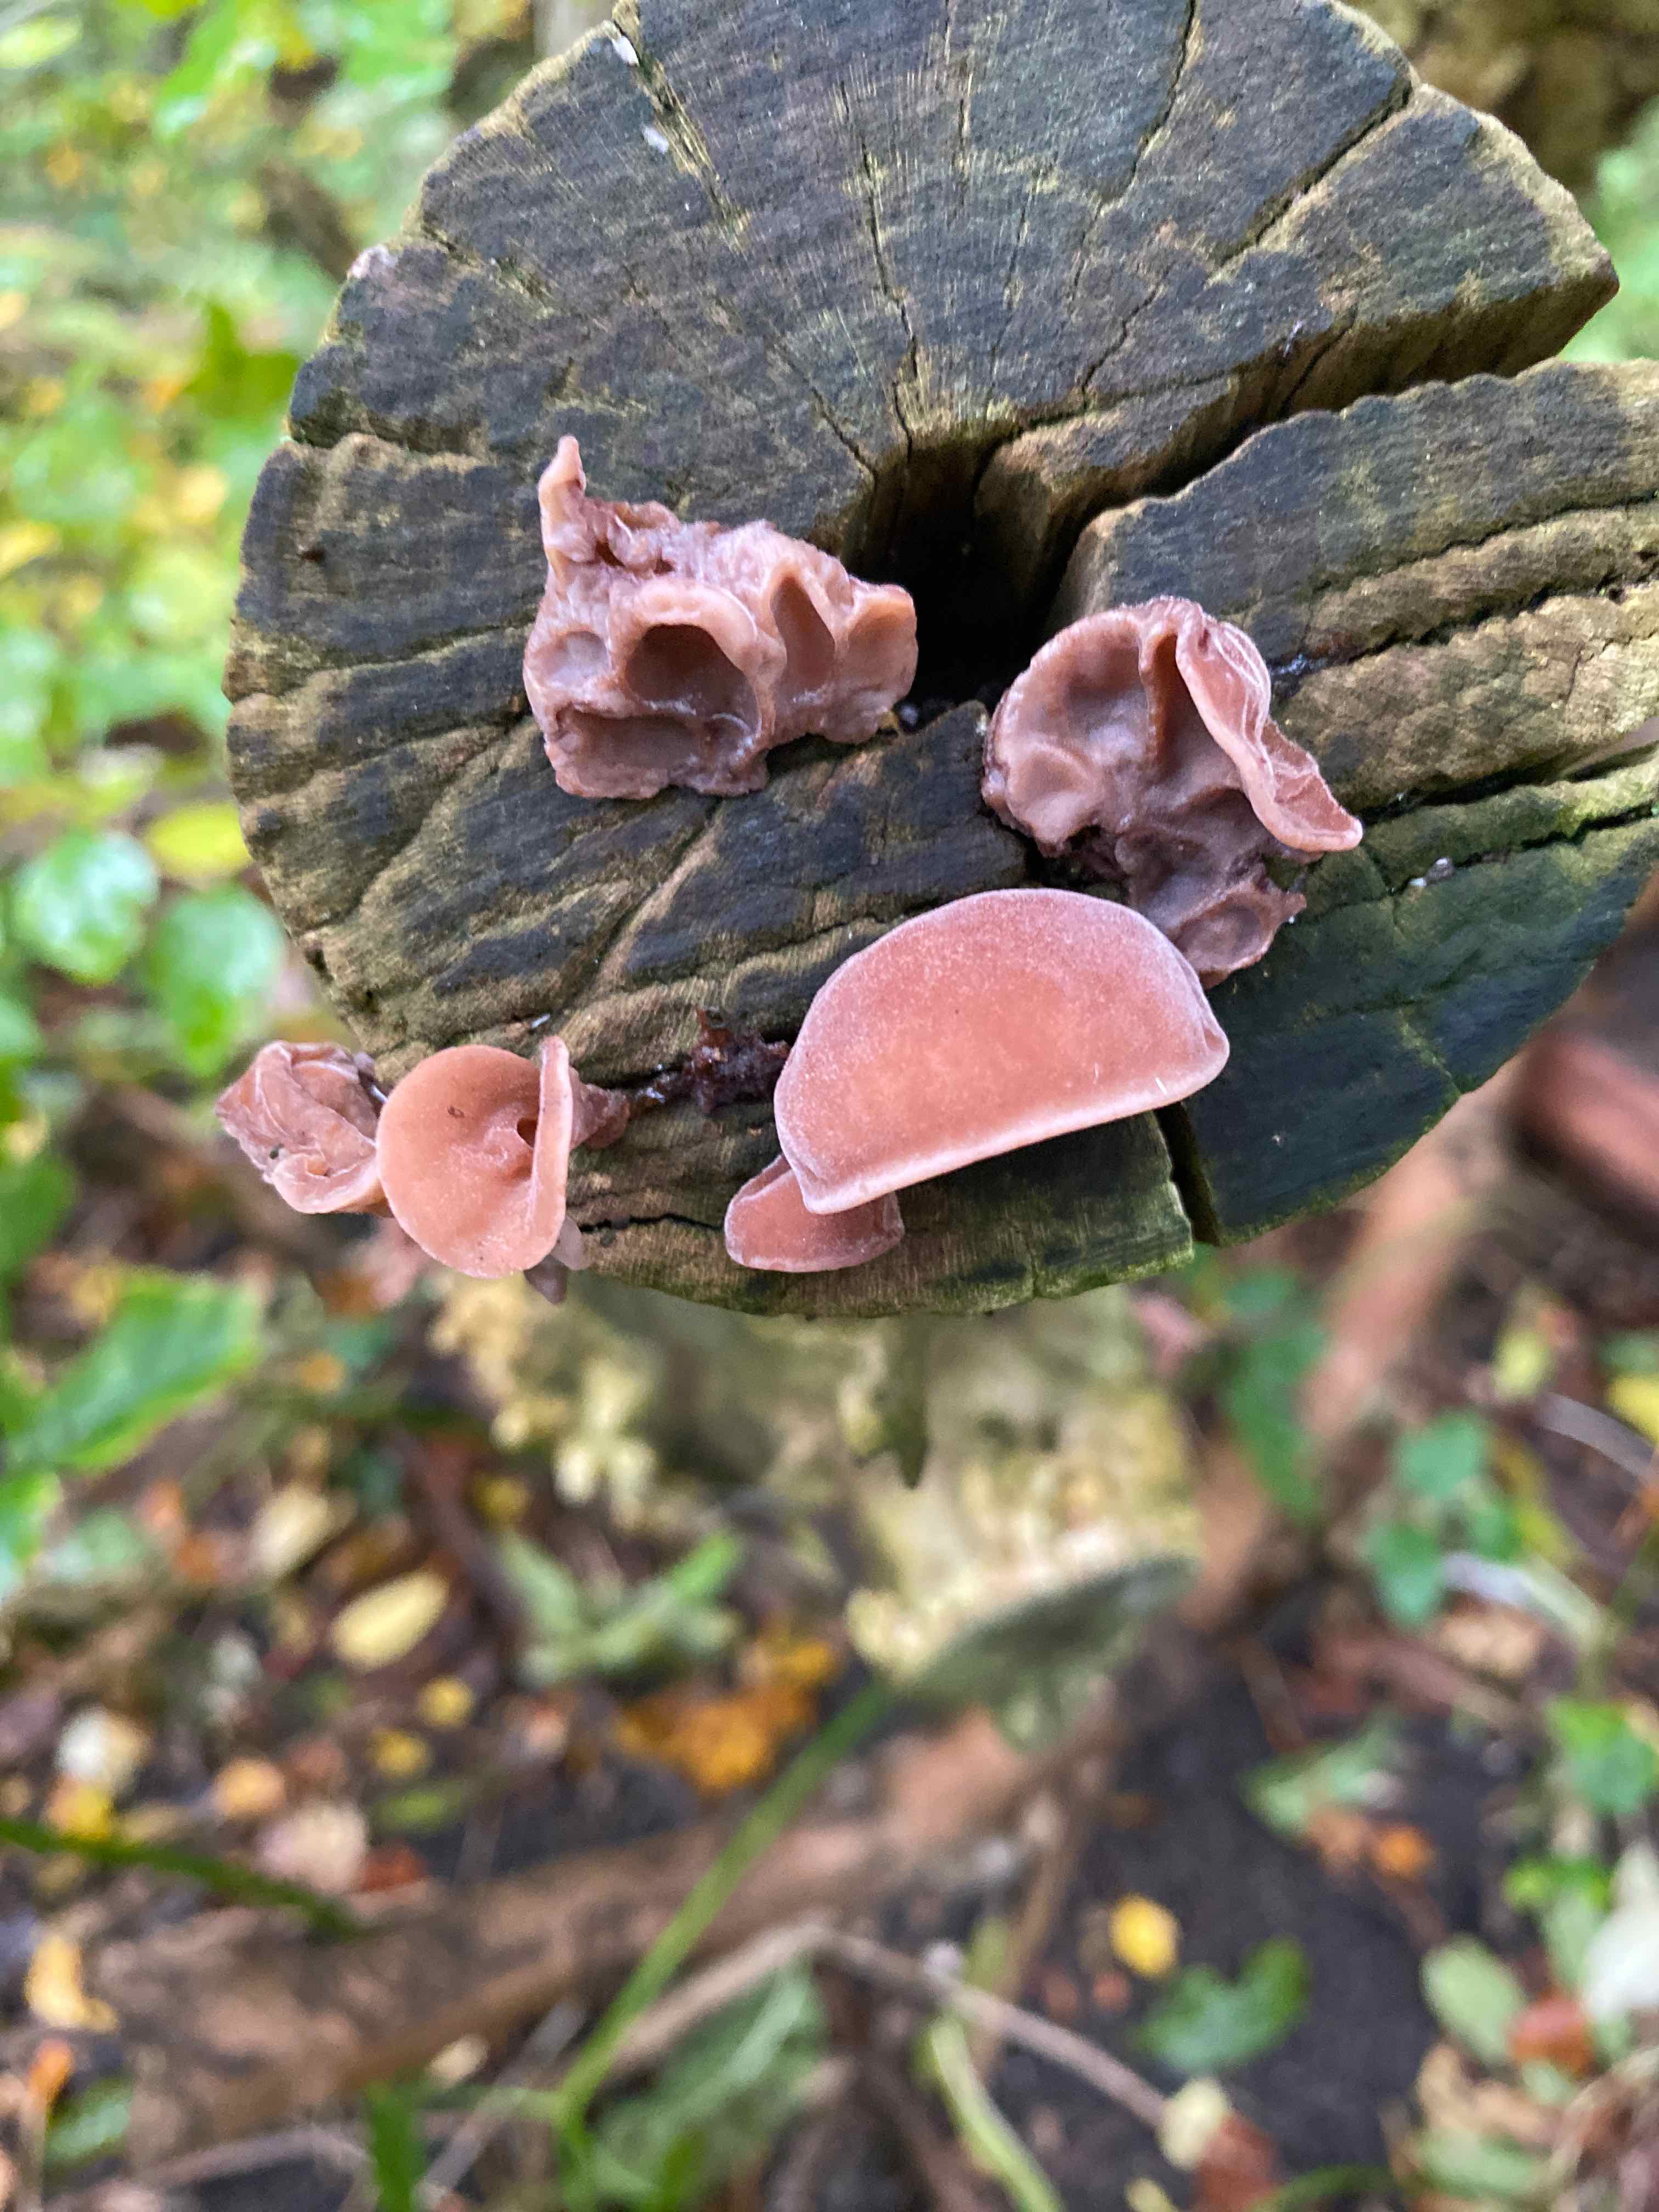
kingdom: Fungi
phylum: Basidiomycota
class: Agaricomycetes
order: Auriculariales
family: Auriculariaceae
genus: Auricularia
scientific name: Auricularia auricula-judae
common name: almindelig judasøre
